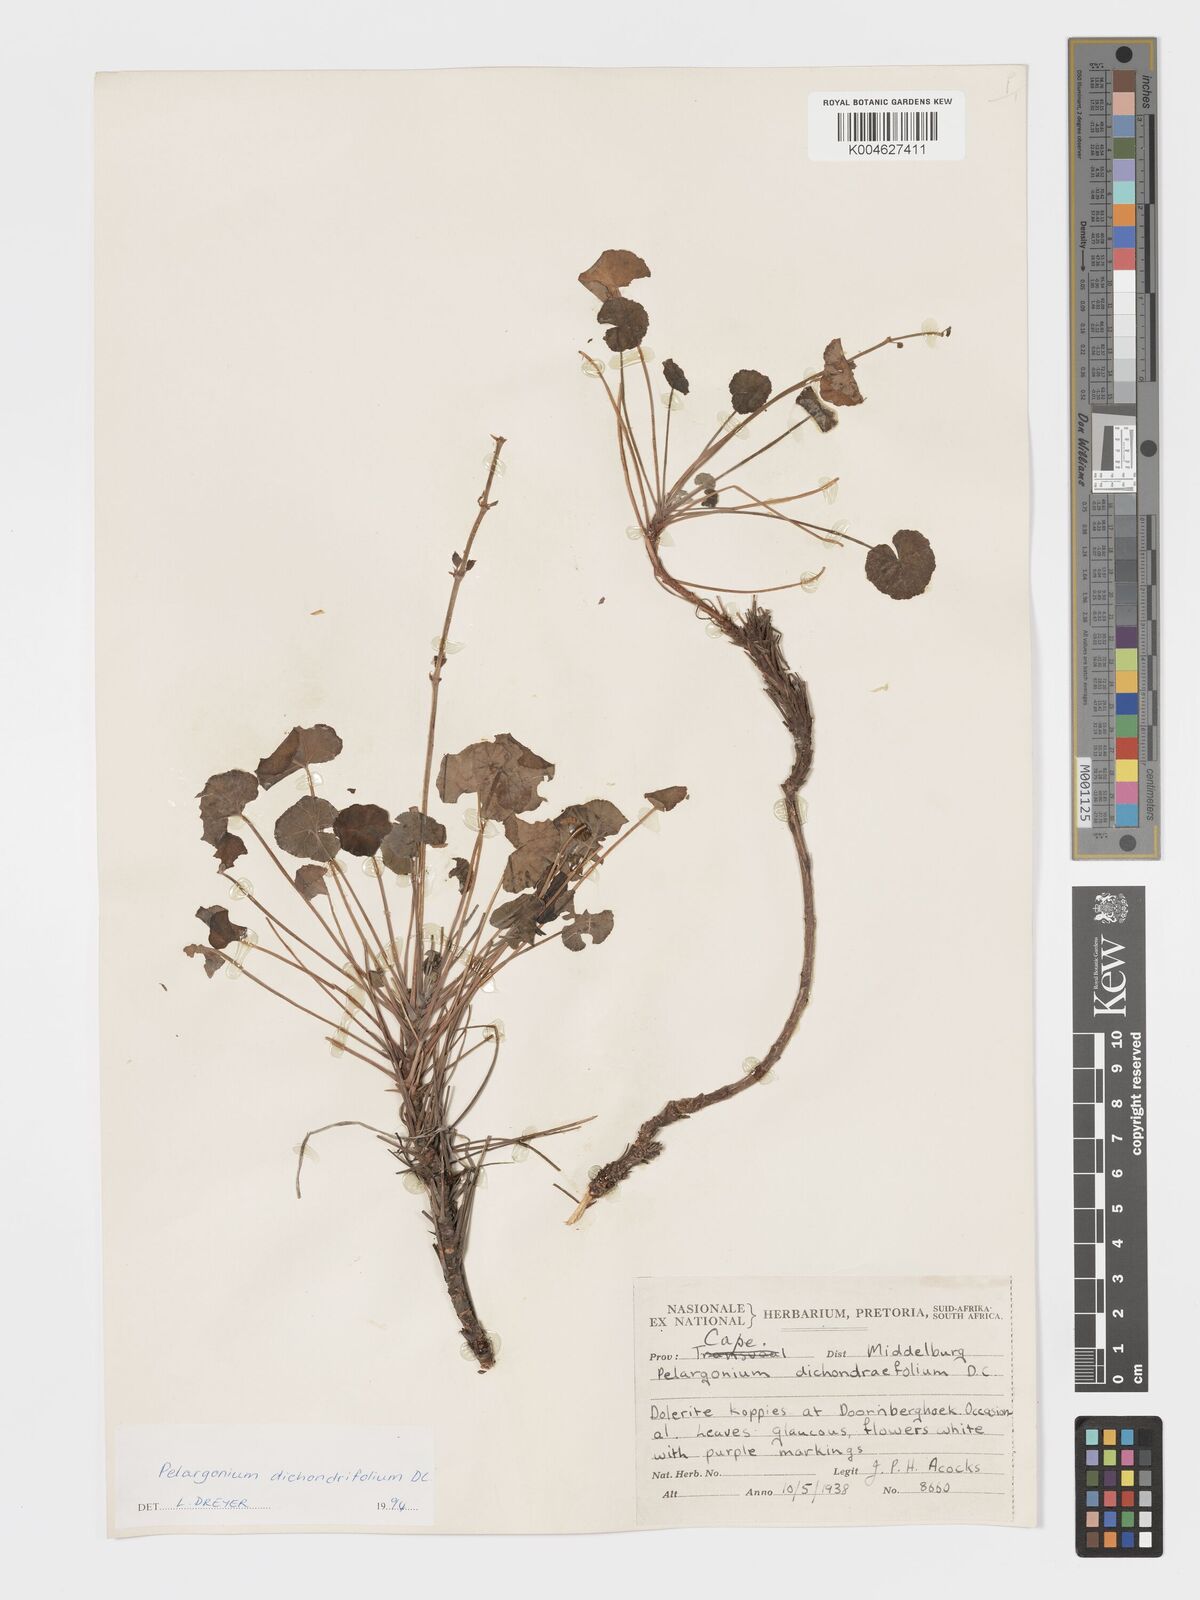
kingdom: Plantae
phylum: Tracheophyta
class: Magnoliopsida
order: Geraniales
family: Geraniaceae
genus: Pelargonium
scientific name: Pelargonium dichondrifolium
